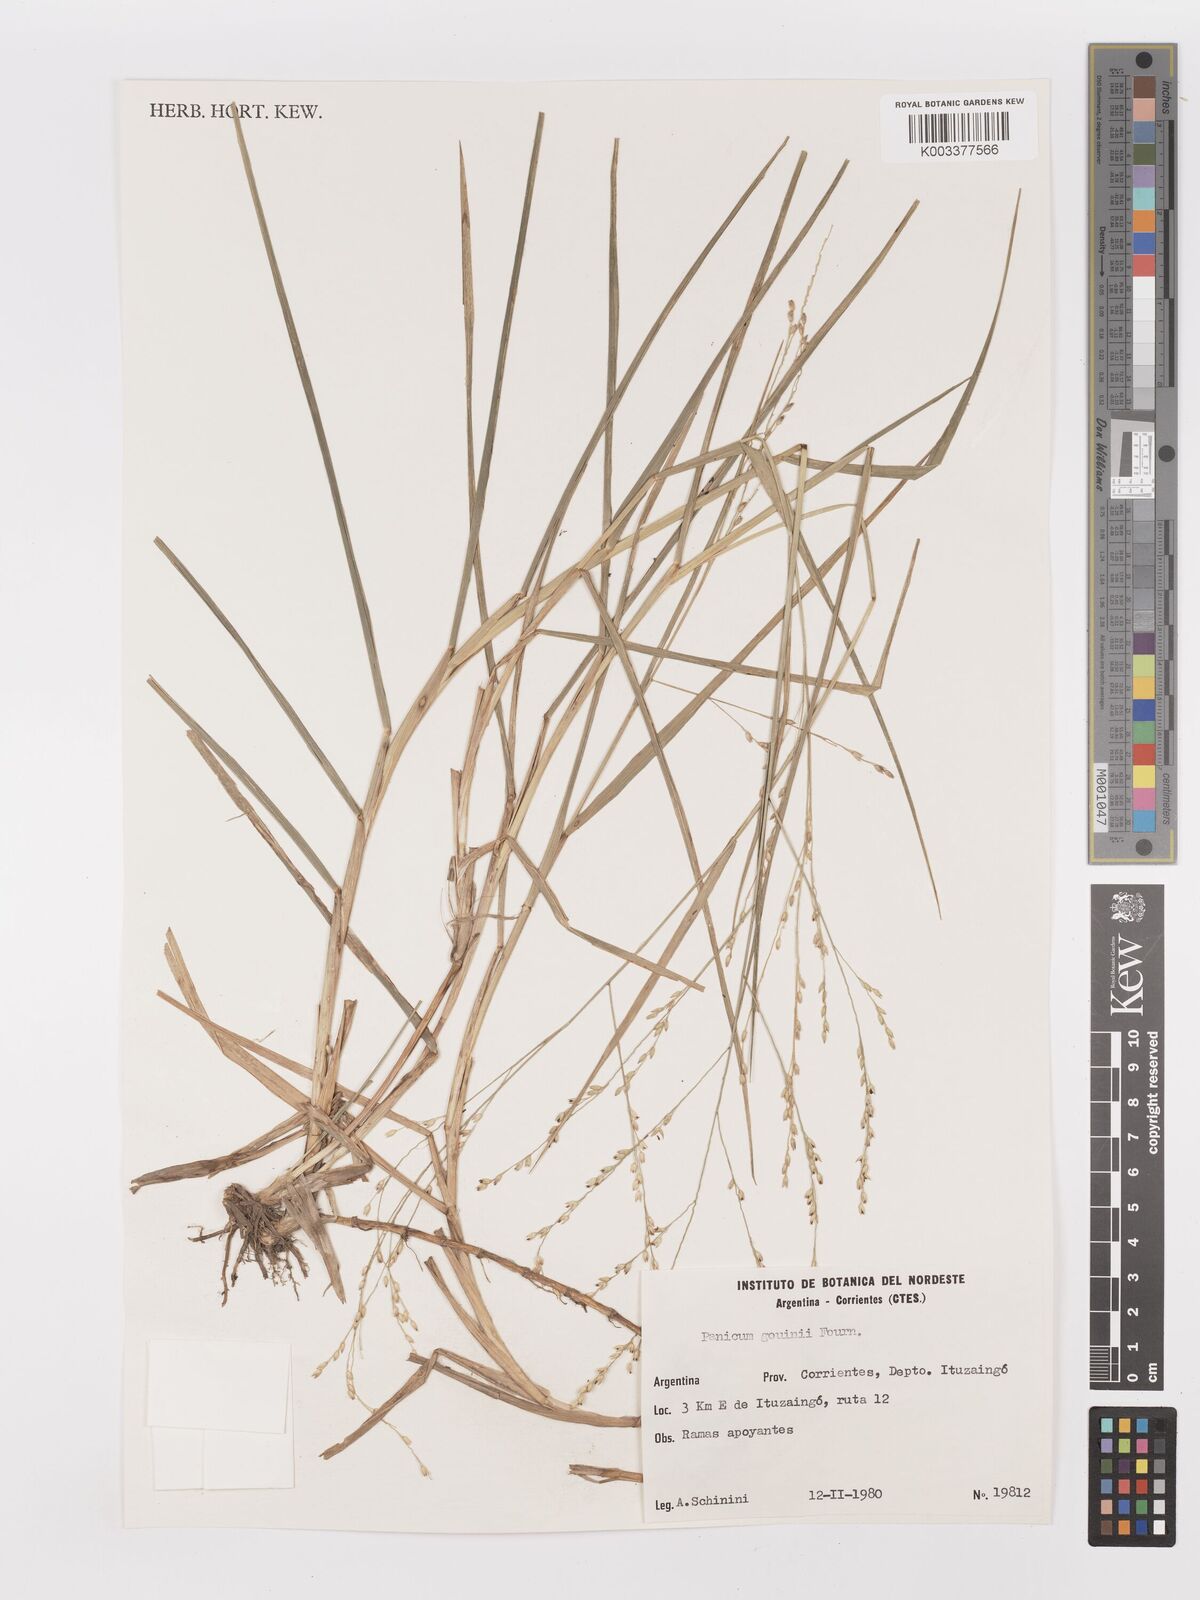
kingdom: Plantae
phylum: Tracheophyta
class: Liliopsida
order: Poales
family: Poaceae
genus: Urochloa
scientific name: Urochloa rudis
